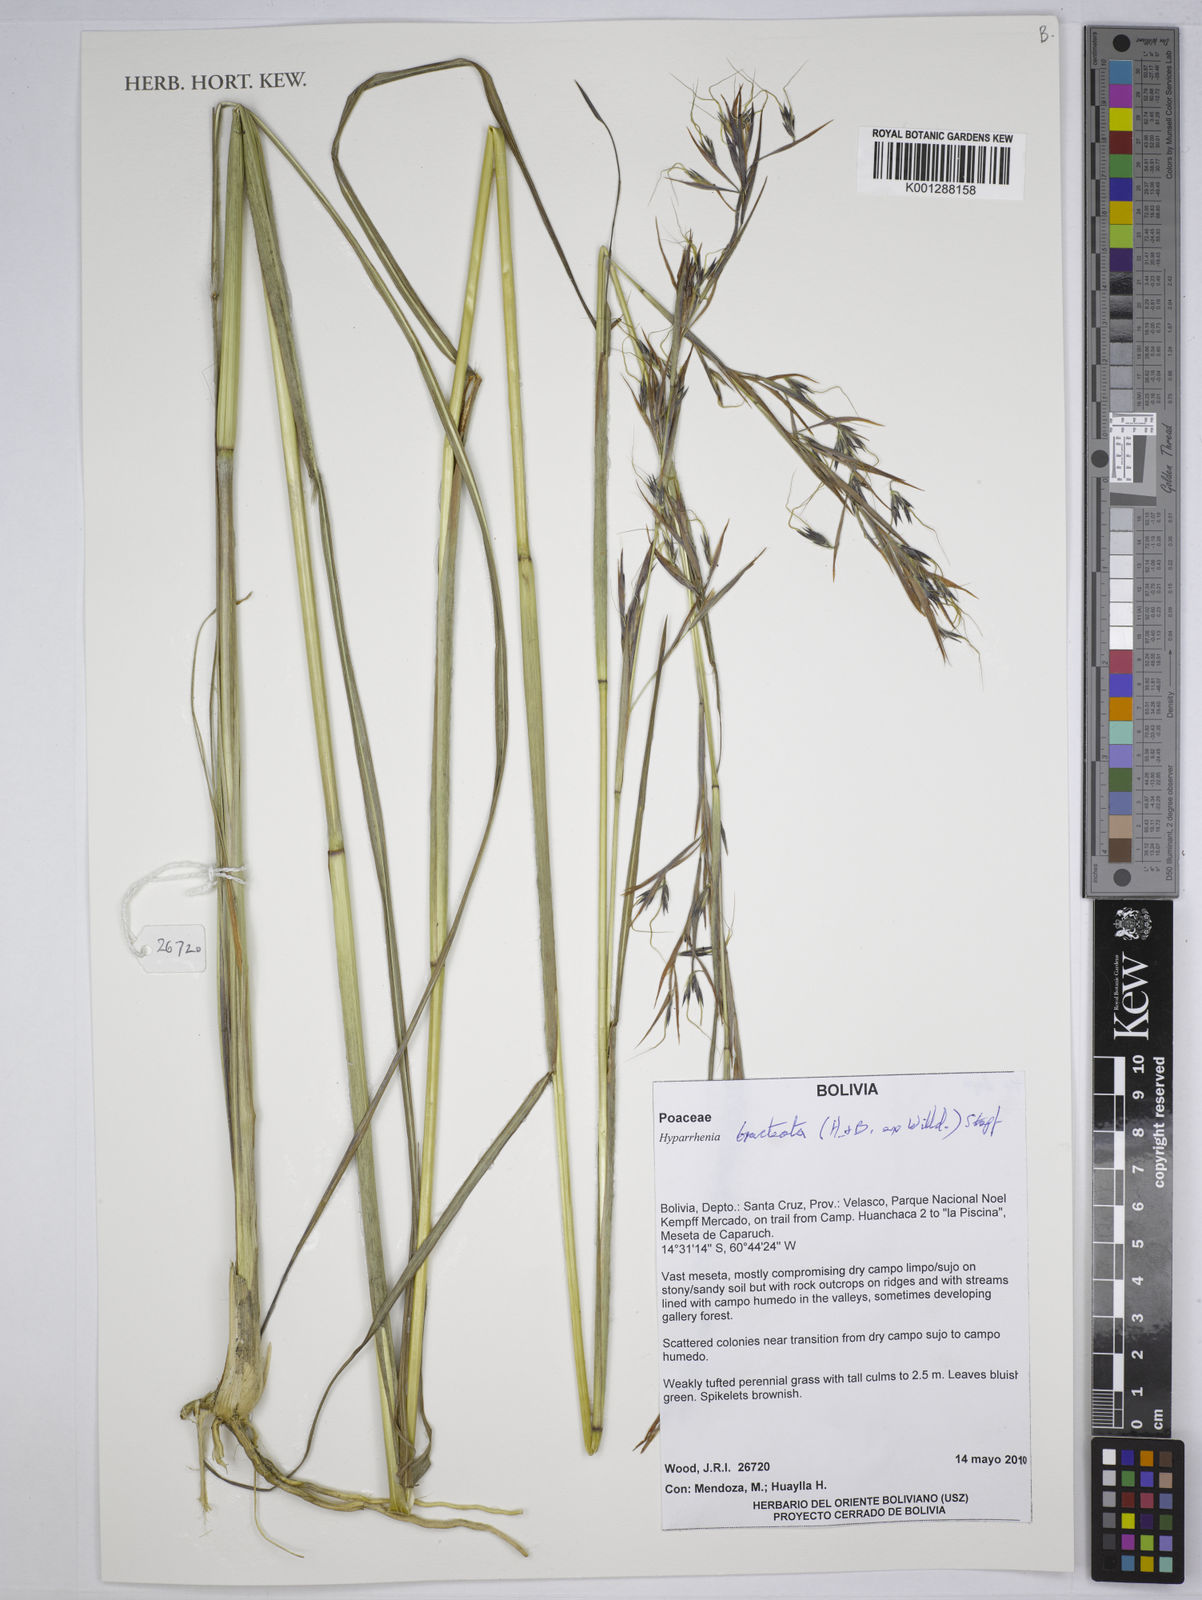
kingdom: Plantae
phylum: Tracheophyta
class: Liliopsida
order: Poales
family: Poaceae
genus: Hyparrhenia
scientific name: Hyparrhenia bracteata
